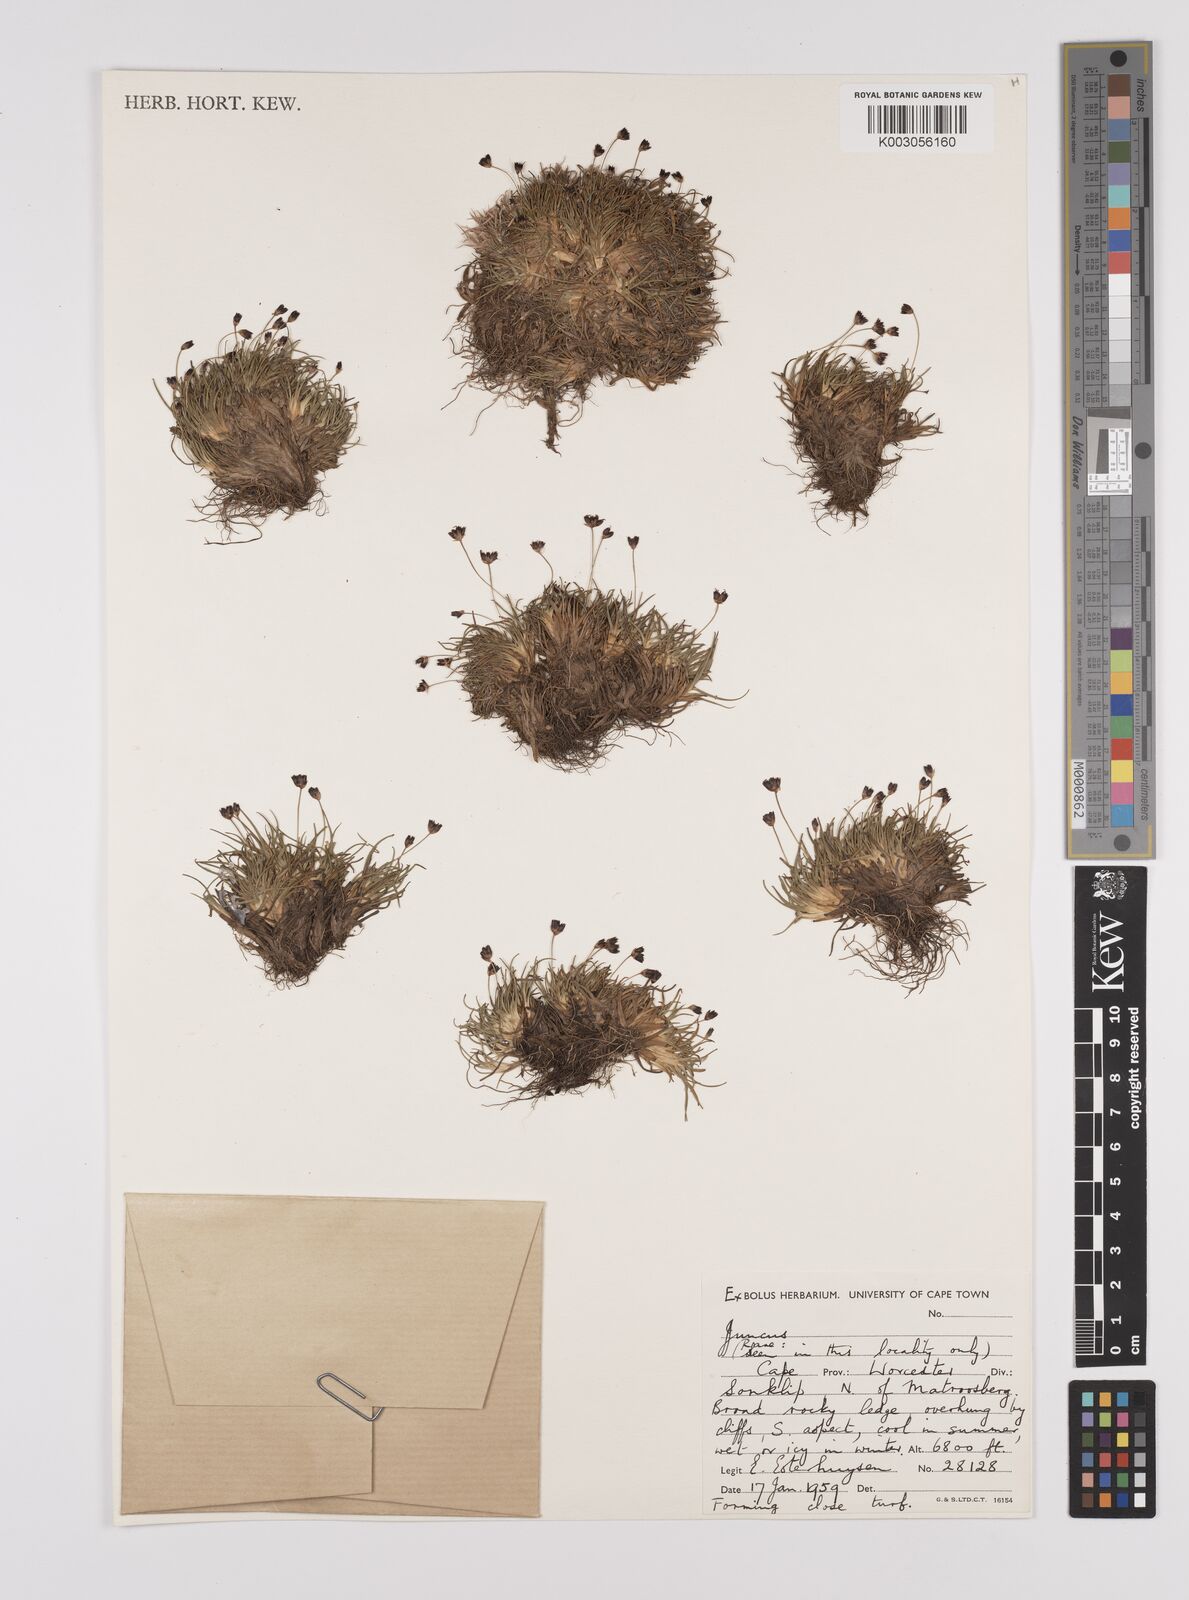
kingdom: Plantae
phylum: Tracheophyta
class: Liliopsida
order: Poales
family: Juncaceae
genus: Juncus
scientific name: Juncus
